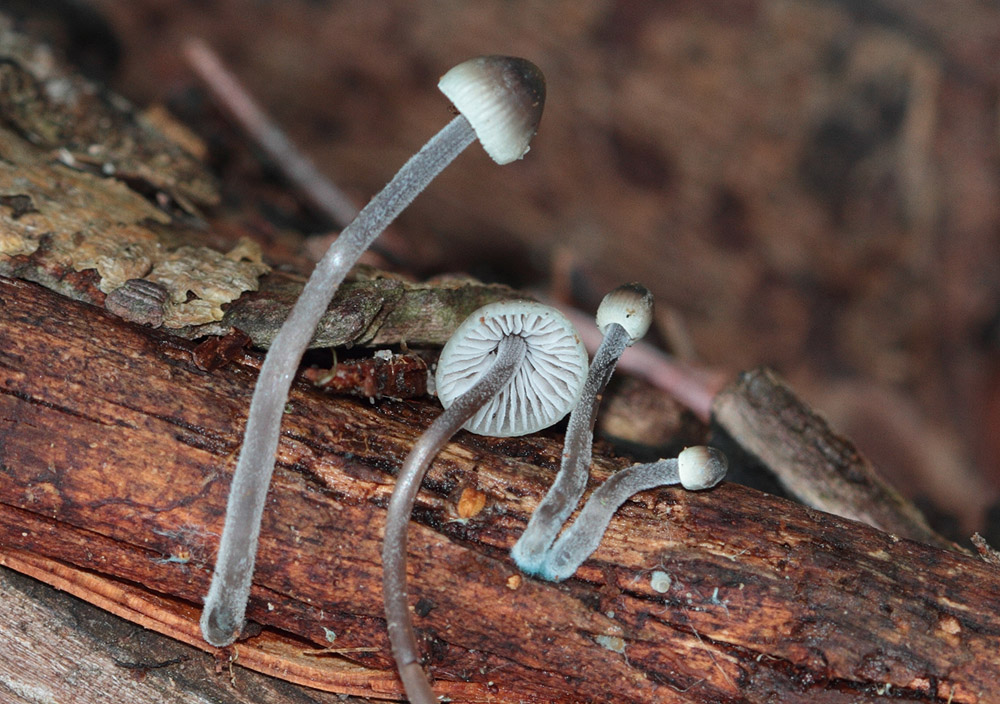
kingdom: Fungi
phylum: Basidiomycota
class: Agaricomycetes
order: Agaricales
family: Mycenaceae
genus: Mycena
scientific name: Mycena amicta
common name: iris-huesvamp
